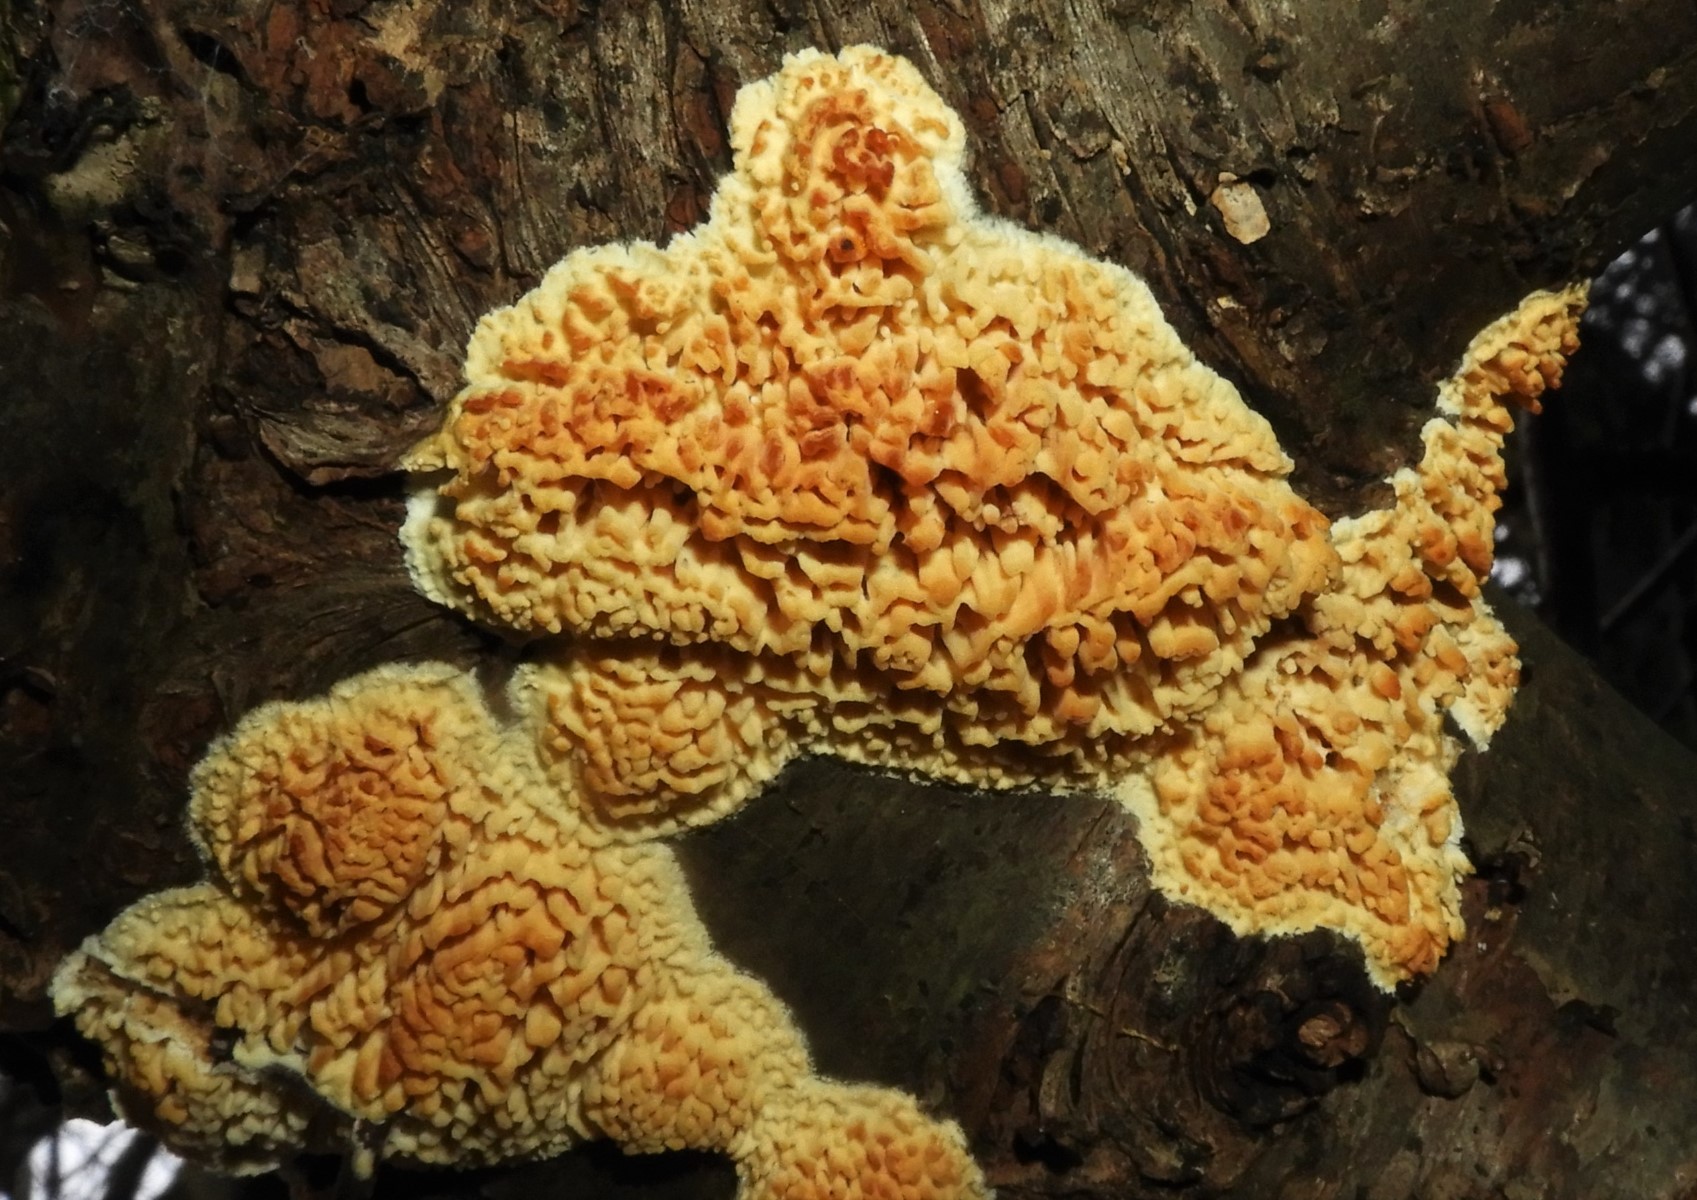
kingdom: Fungi
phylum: Basidiomycota
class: Agaricomycetes
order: Hymenochaetales
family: Schizoporaceae
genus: Xylodon
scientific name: Xylodon radula
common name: grovtandet kalkskind
